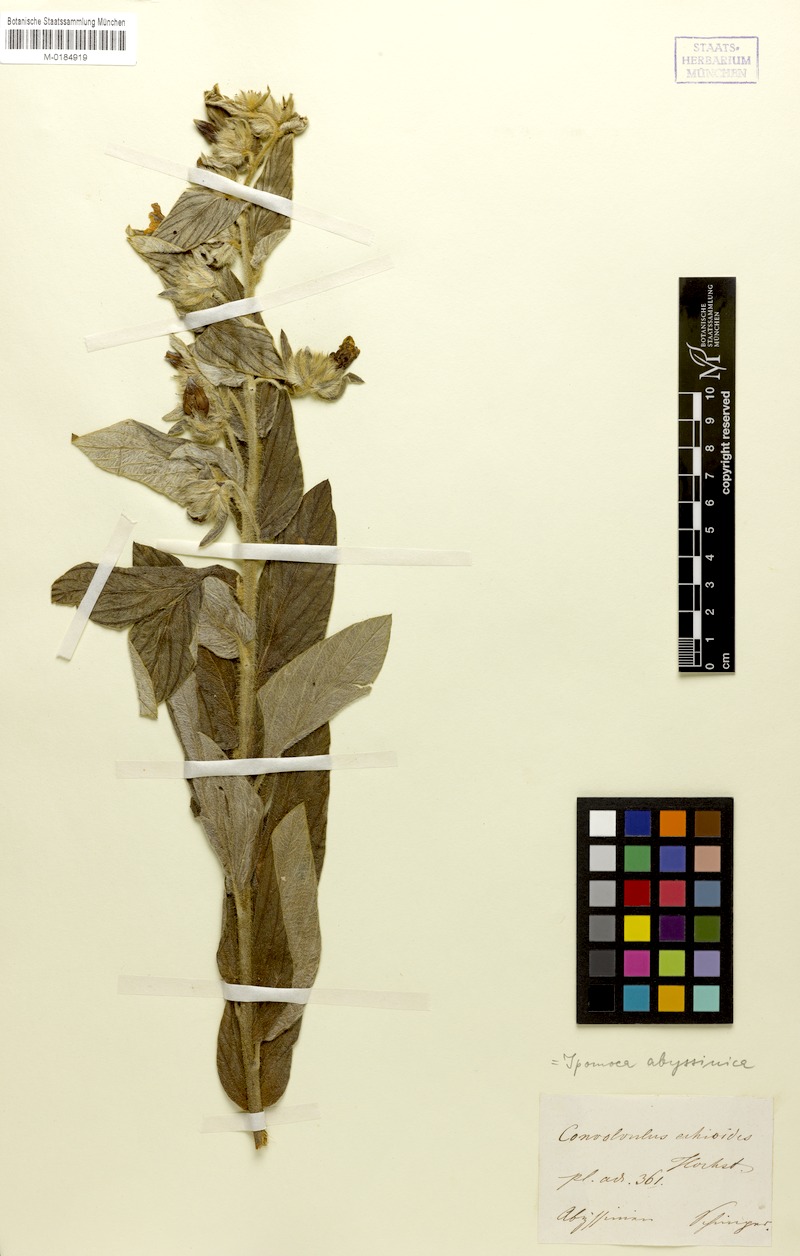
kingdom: Plantae
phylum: Tracheophyta
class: Magnoliopsida
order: Solanales
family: Convolvulaceae
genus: Ipomoea
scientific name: Ipomoea abyssinica
